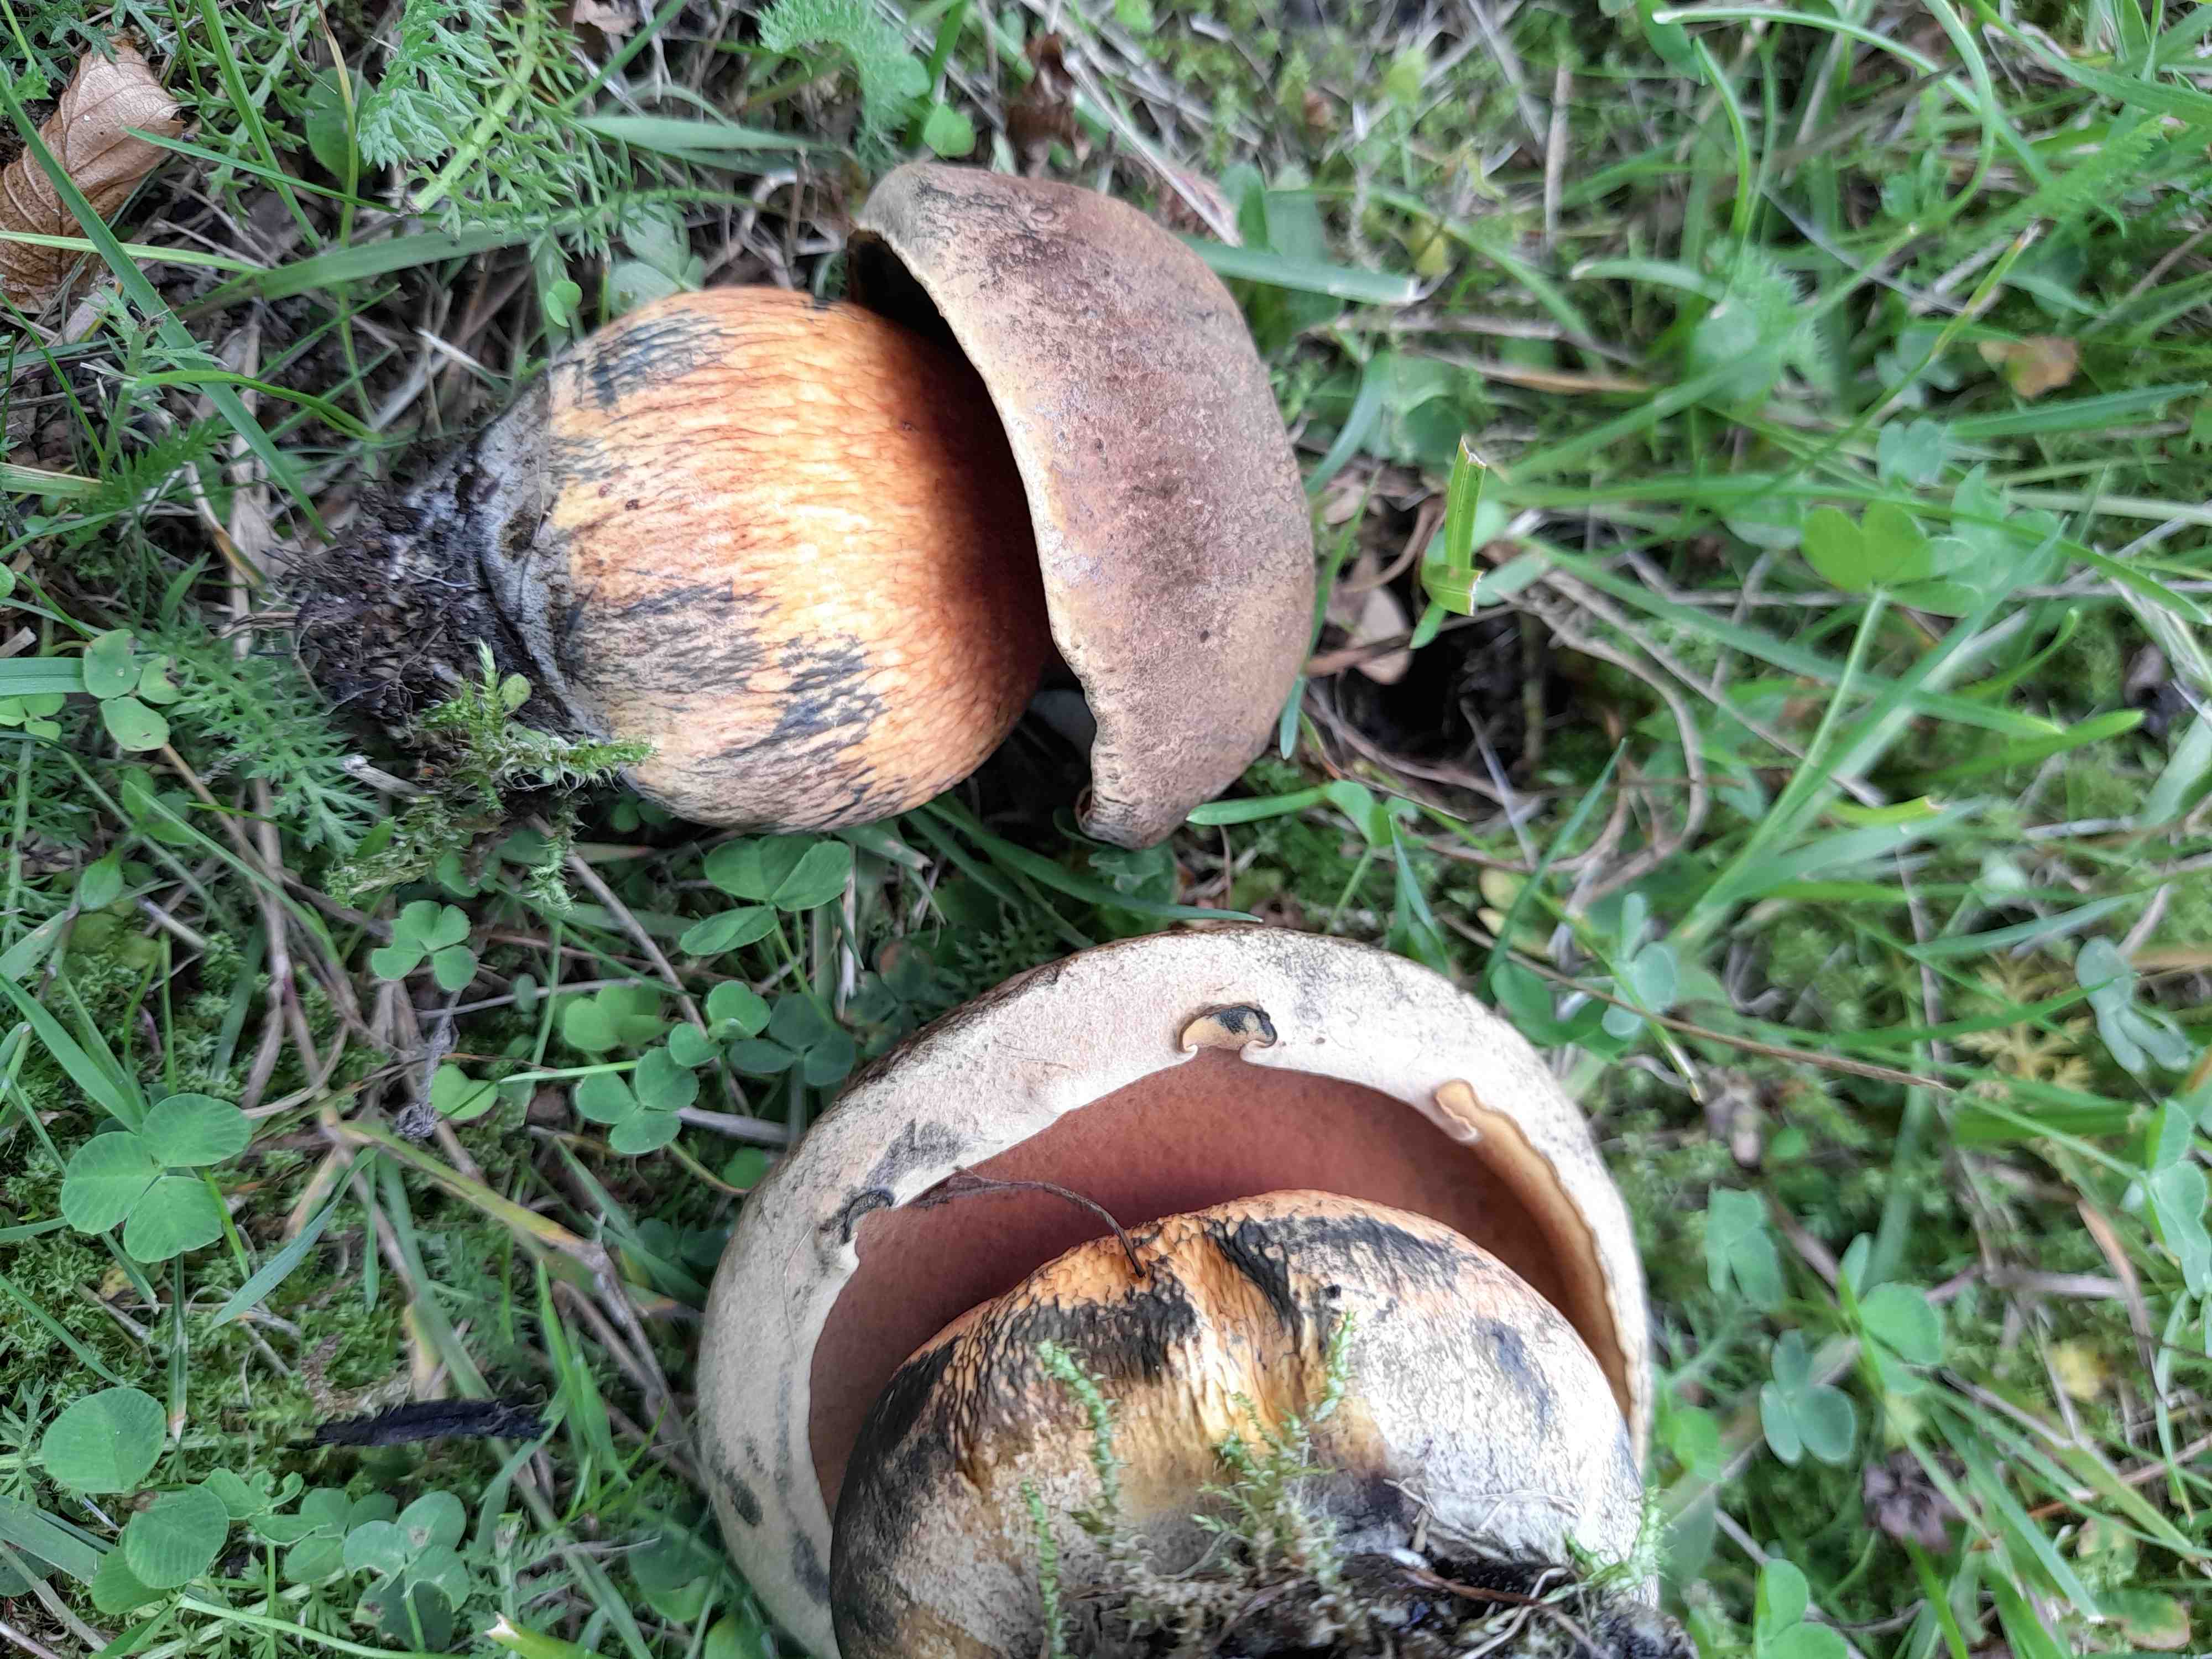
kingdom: Fungi
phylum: Basidiomycota
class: Agaricomycetes
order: Boletales
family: Boletaceae
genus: Suillellus
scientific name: Suillellus luridus
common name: netstokket indigorørhat
